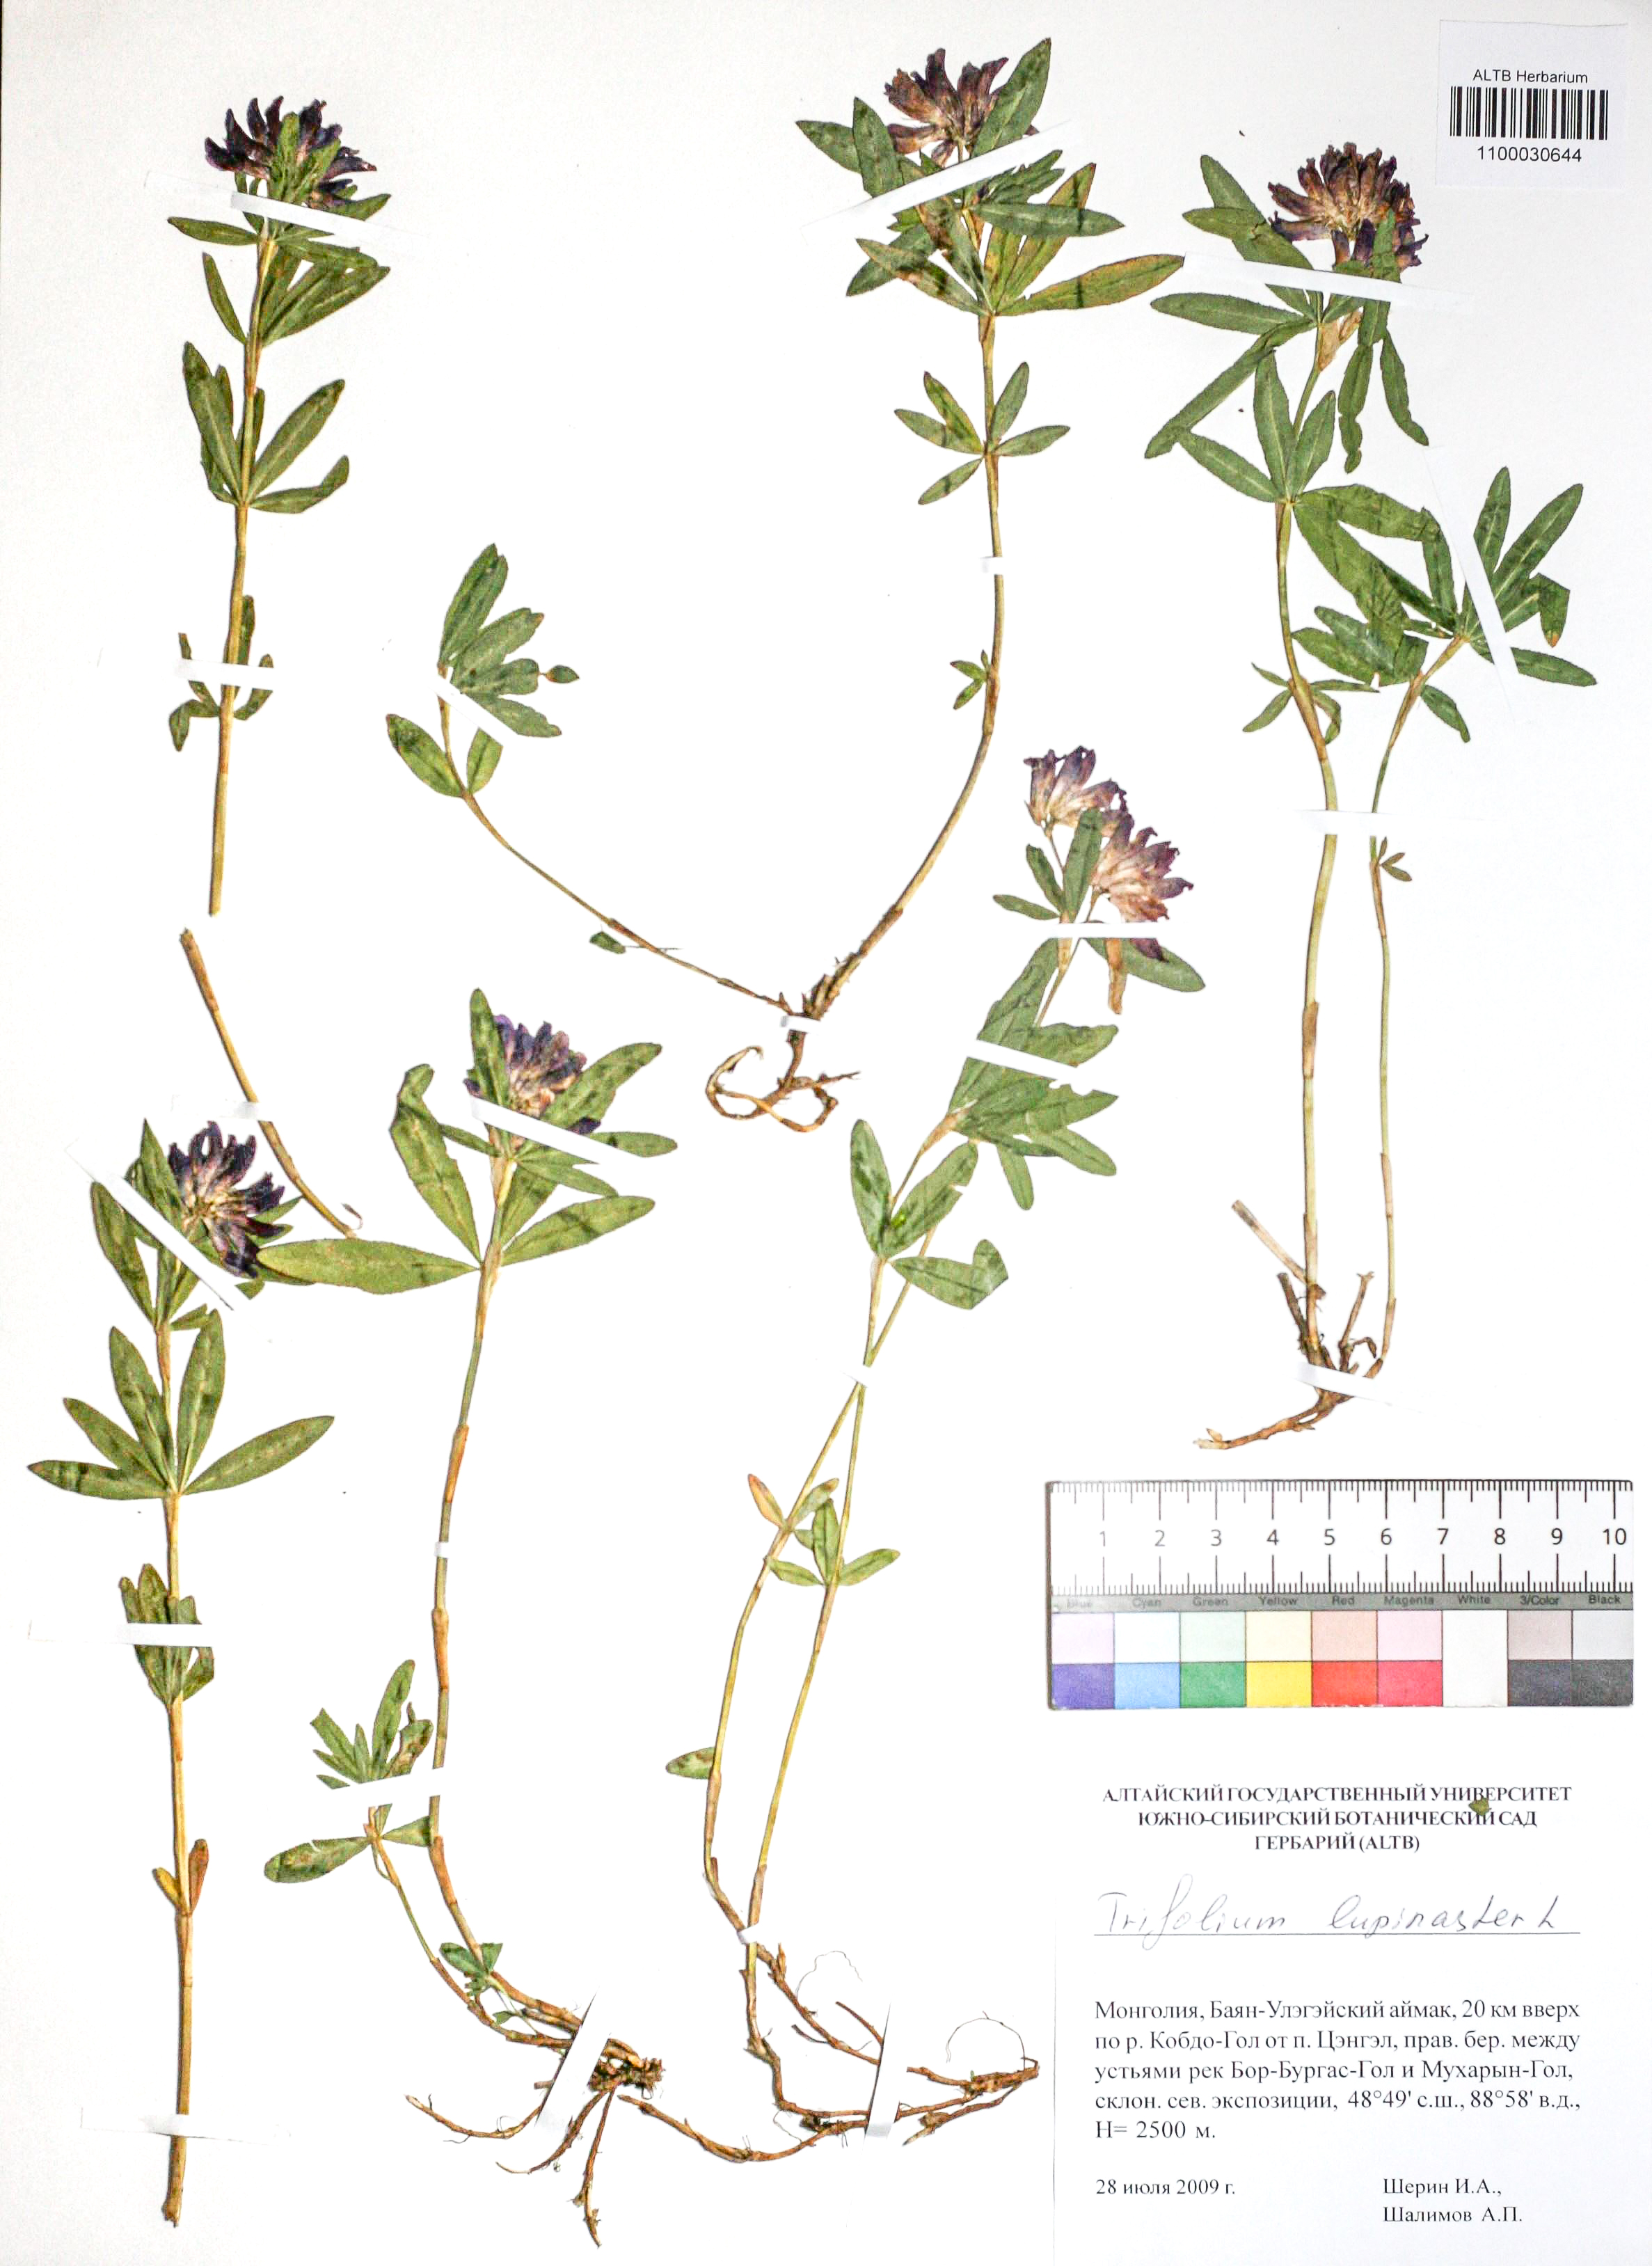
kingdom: Plantae
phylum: Tracheophyta
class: Magnoliopsida
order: Fabales
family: Fabaceae
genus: Trifolium
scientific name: Trifolium lupinaster
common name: Lupine clover
